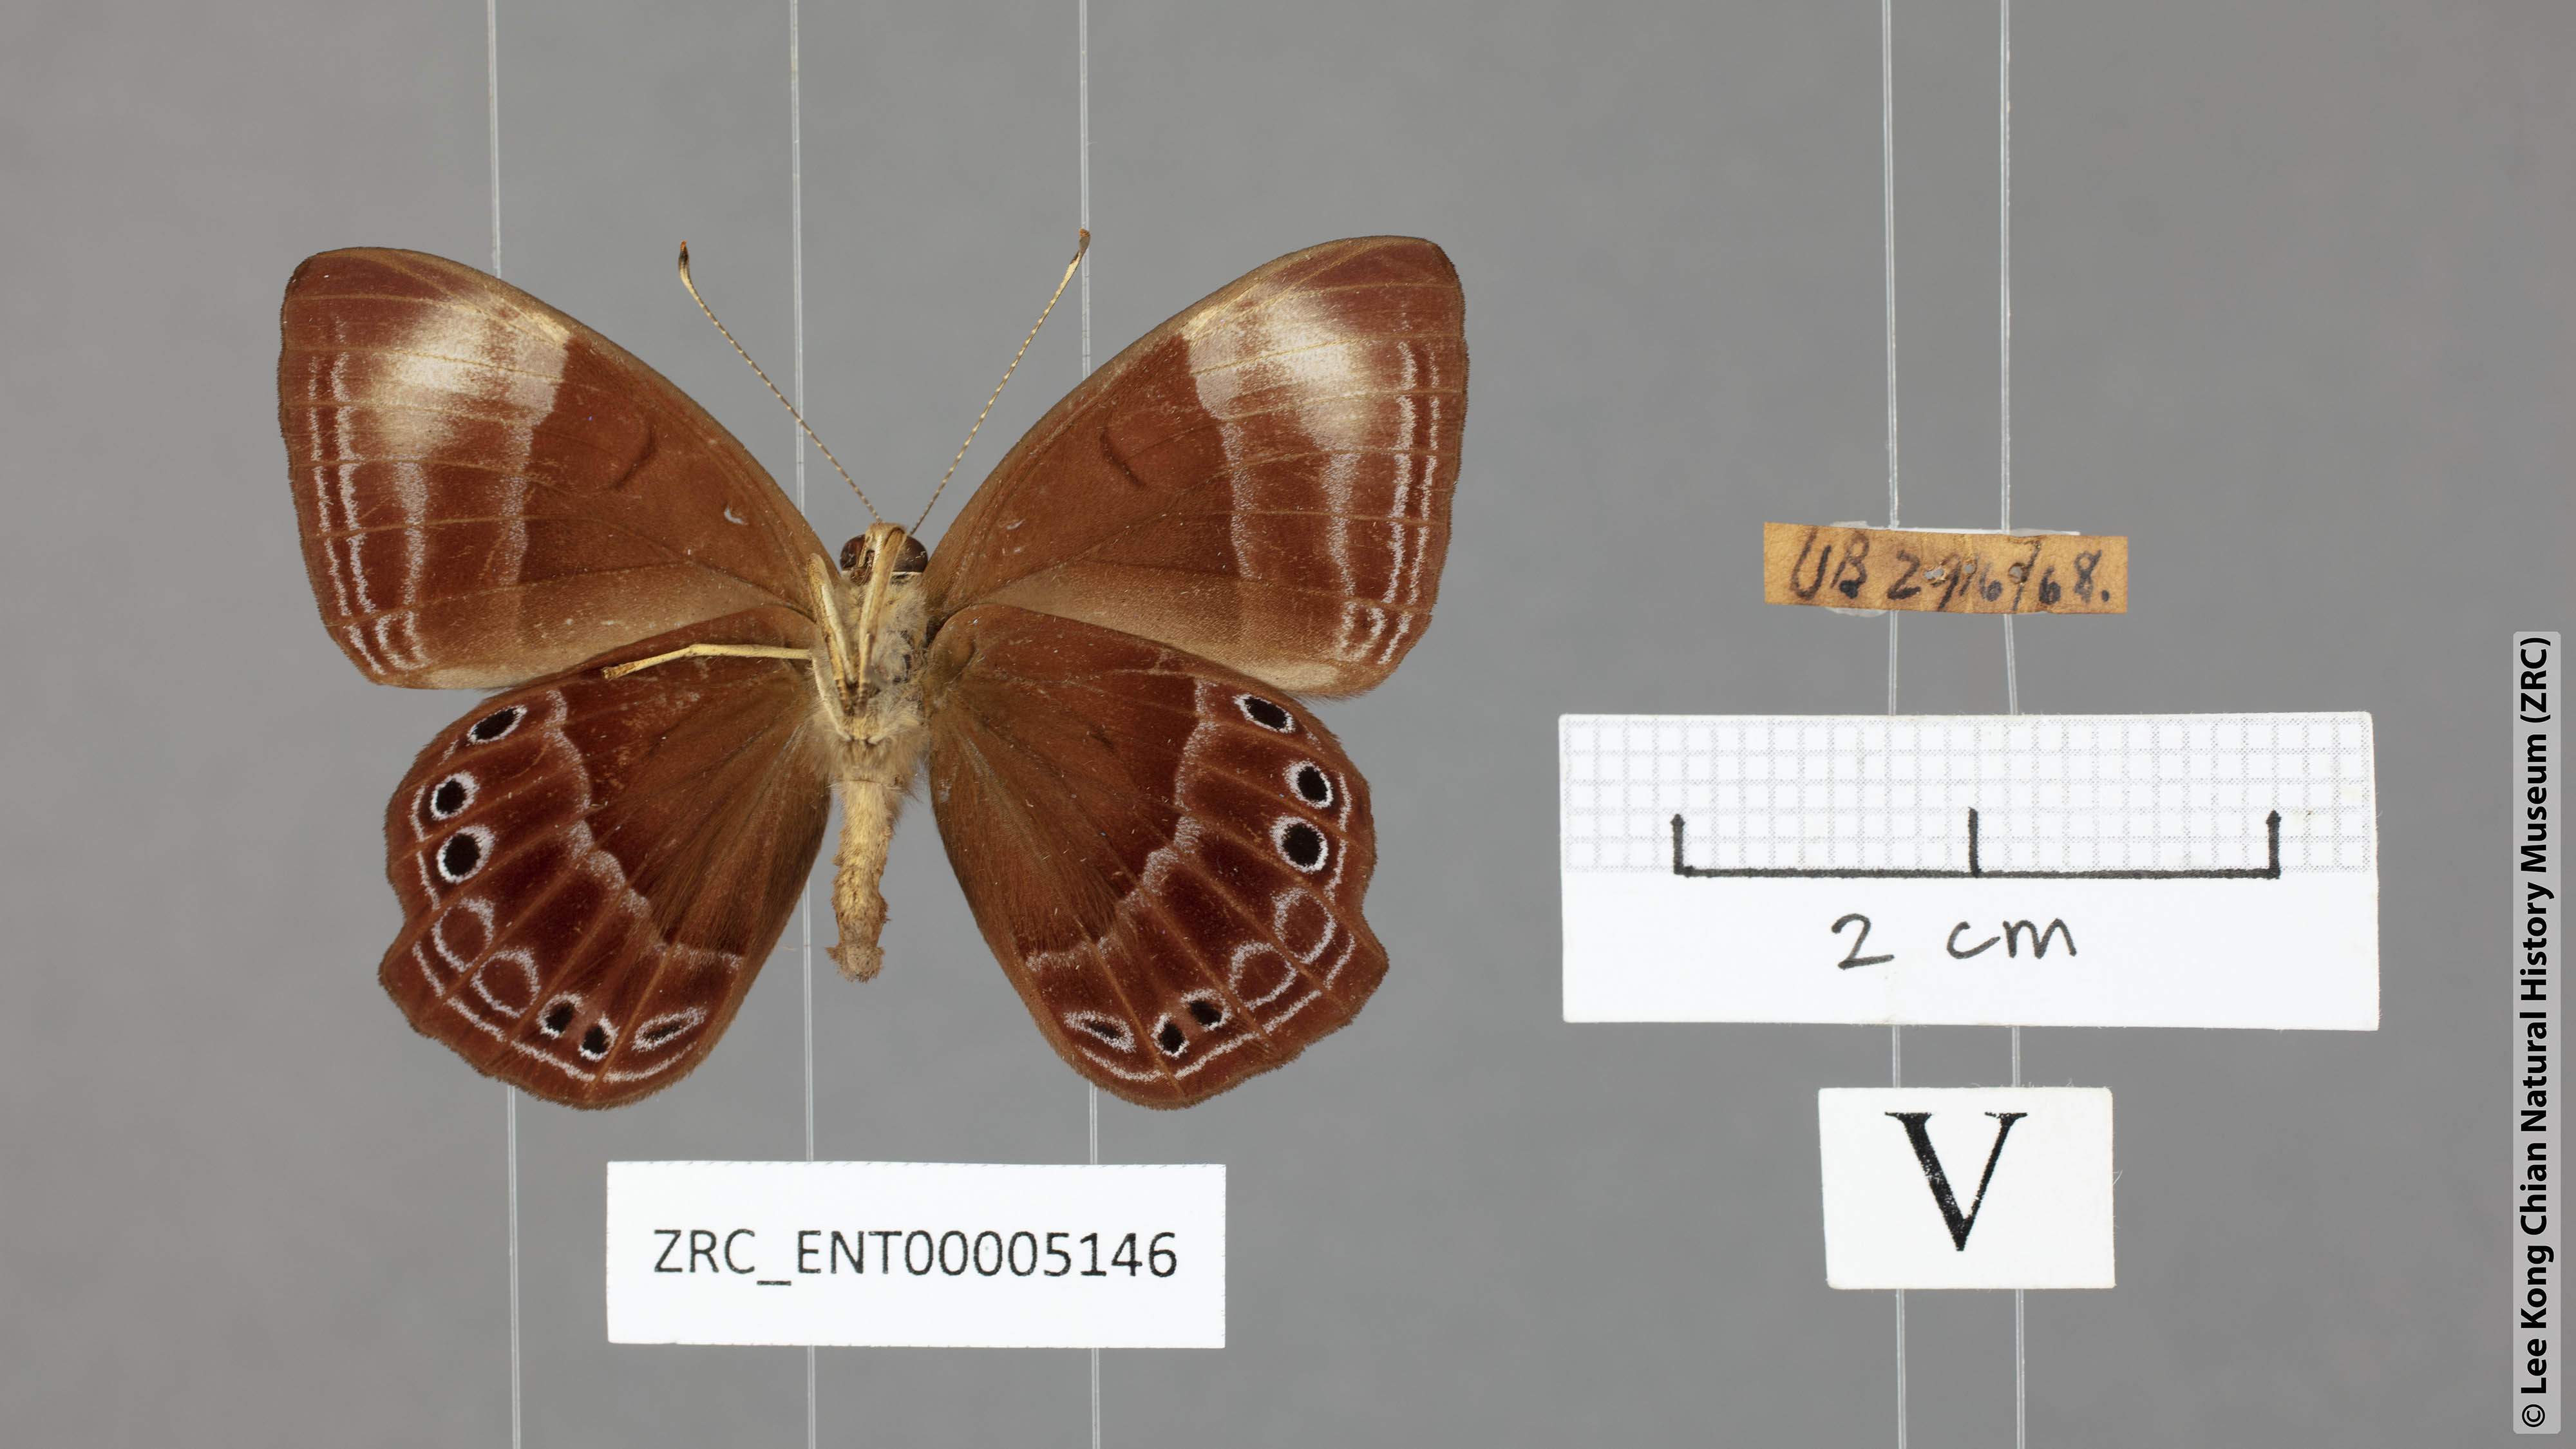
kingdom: Animalia
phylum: Arthropoda
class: Insecta
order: Lepidoptera
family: Lycaenidae
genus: Abisara
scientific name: Abisara geza
